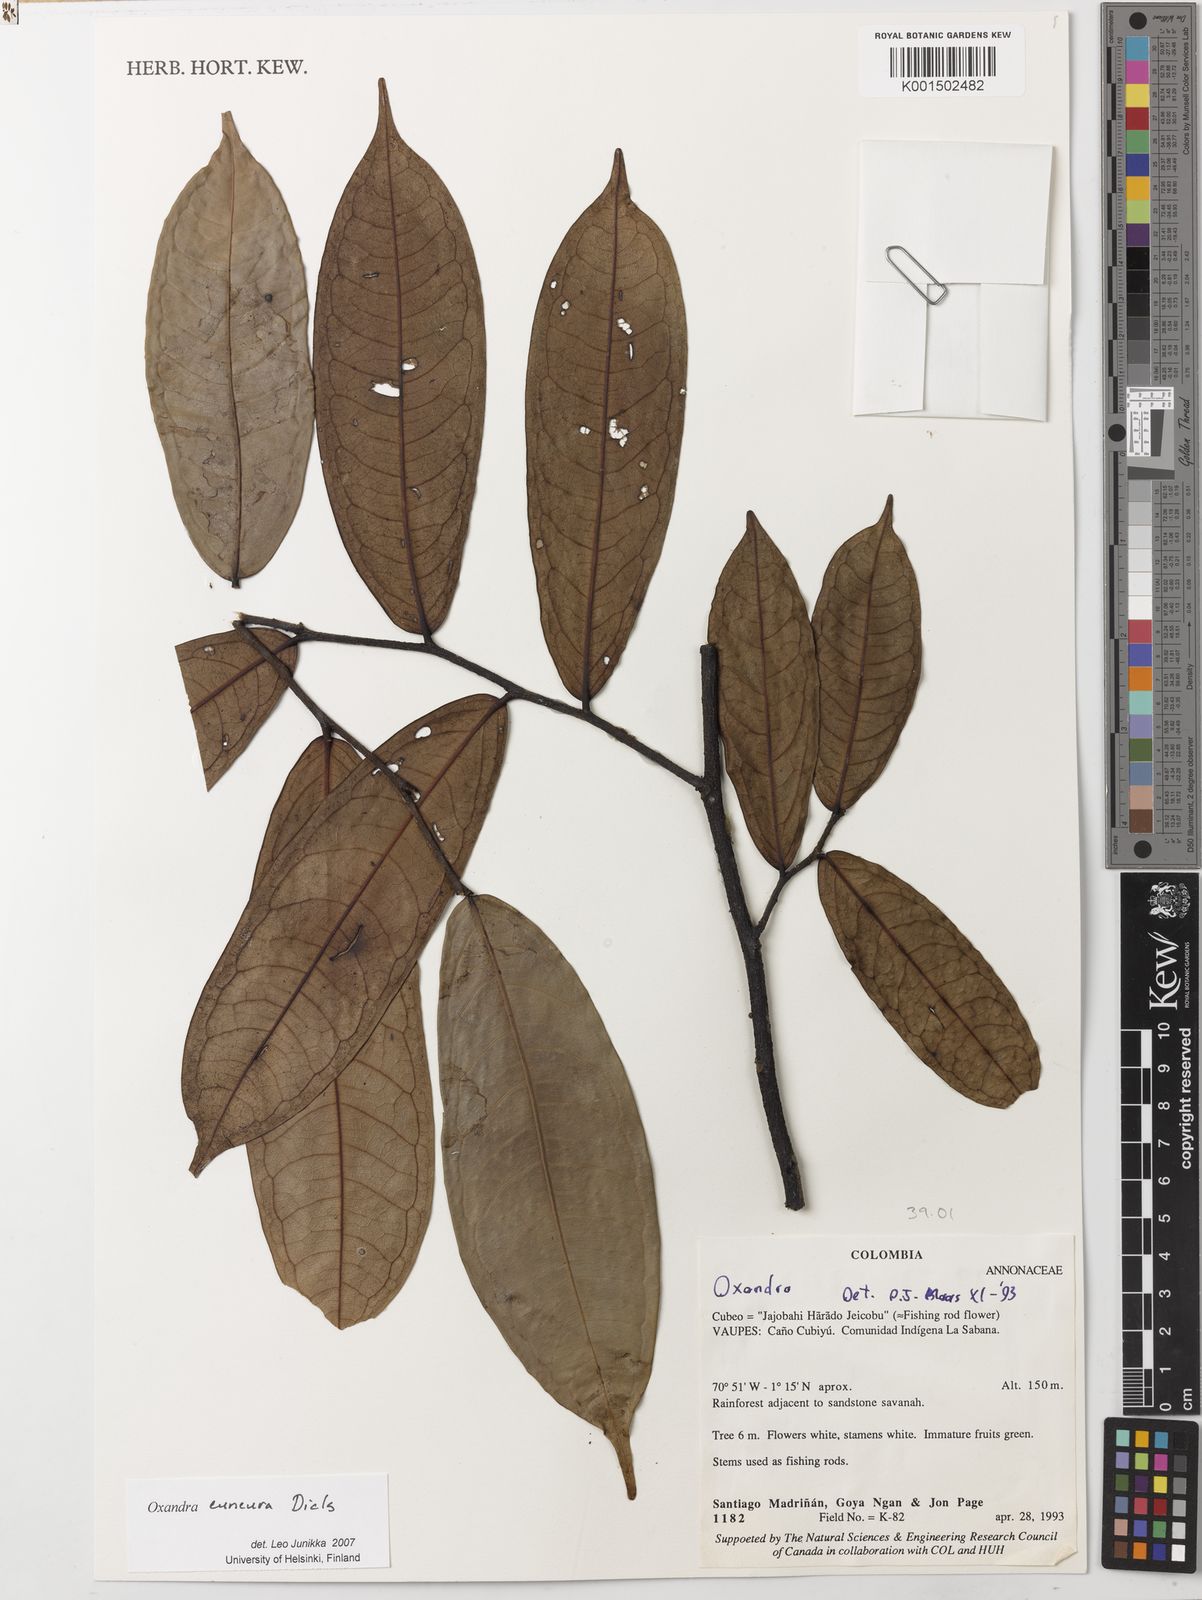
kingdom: Plantae
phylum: Tracheophyta
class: Magnoliopsida
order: Magnoliales
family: Annonaceae
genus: Oxandra
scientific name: Oxandra euneura
